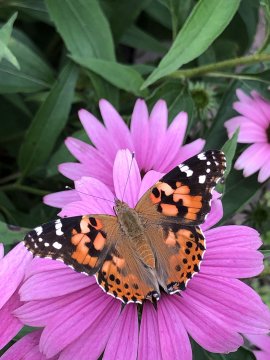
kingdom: Animalia
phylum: Arthropoda
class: Insecta
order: Lepidoptera
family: Nymphalidae
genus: Vanessa
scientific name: Vanessa cardui
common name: Painted Lady
